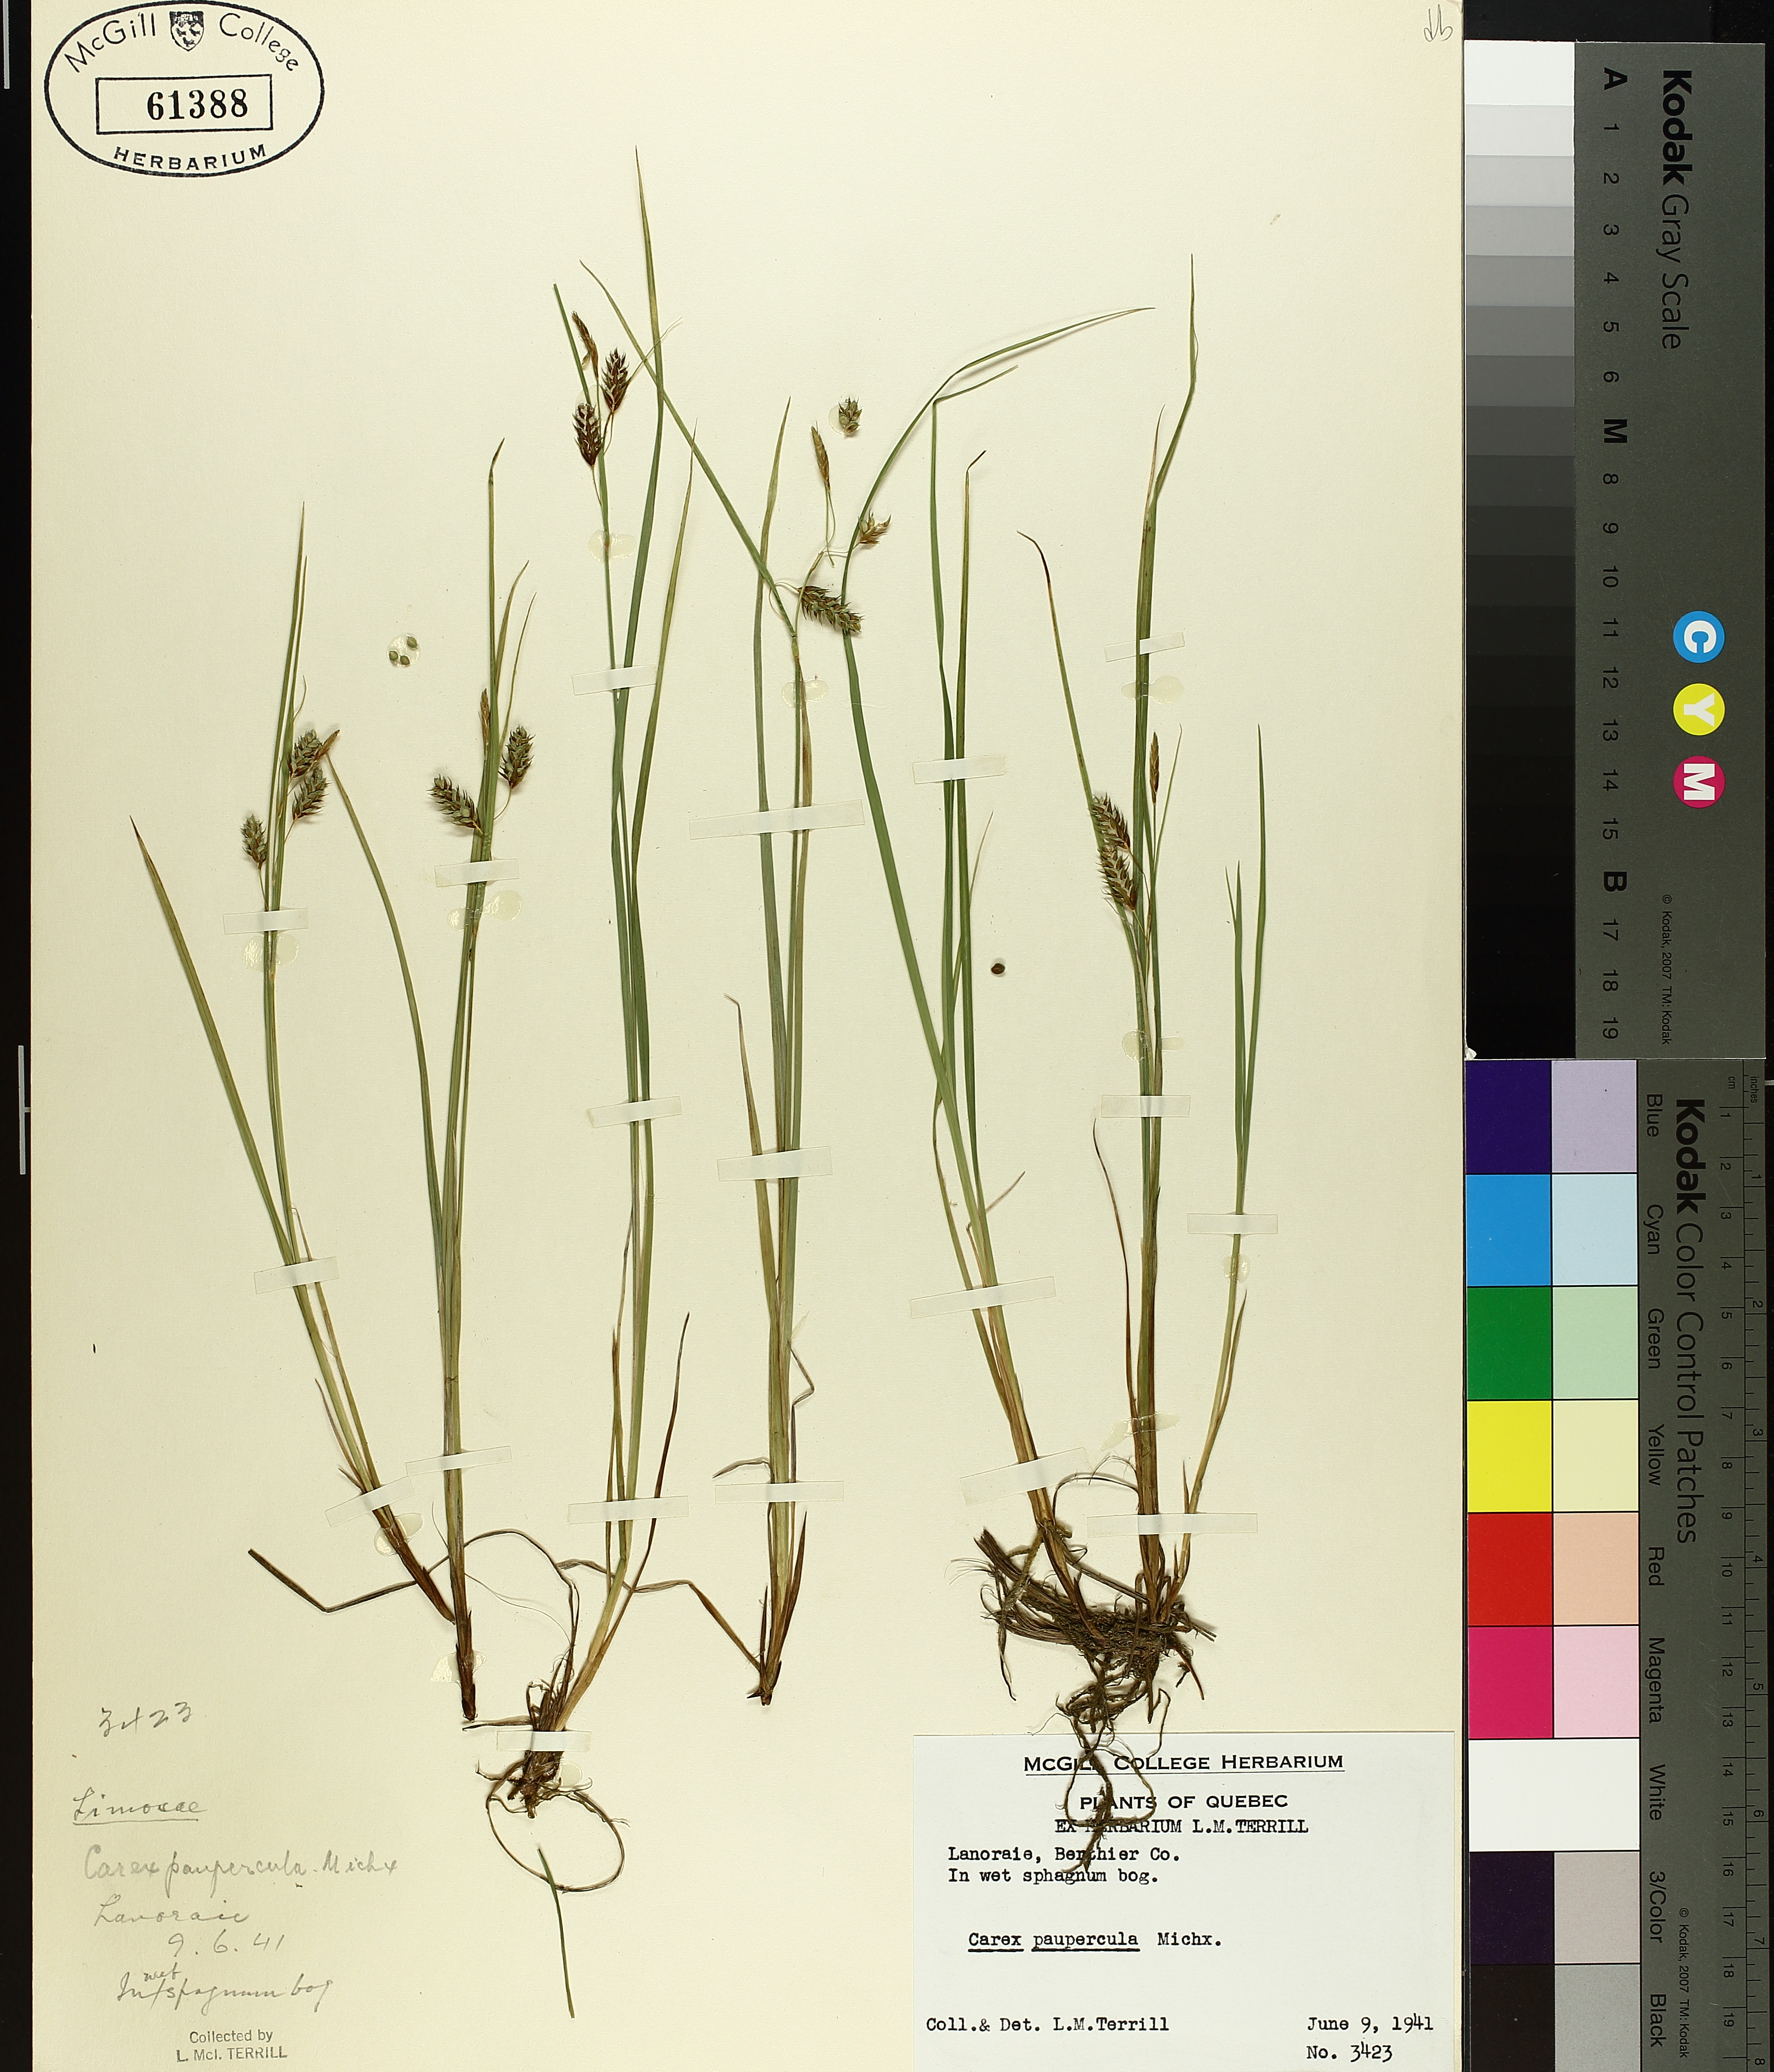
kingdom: Plantae
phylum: Tracheophyta
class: Liliopsida
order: Poales
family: Cyperaceae
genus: Carex
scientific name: Carex magellanica
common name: Bog sedge
